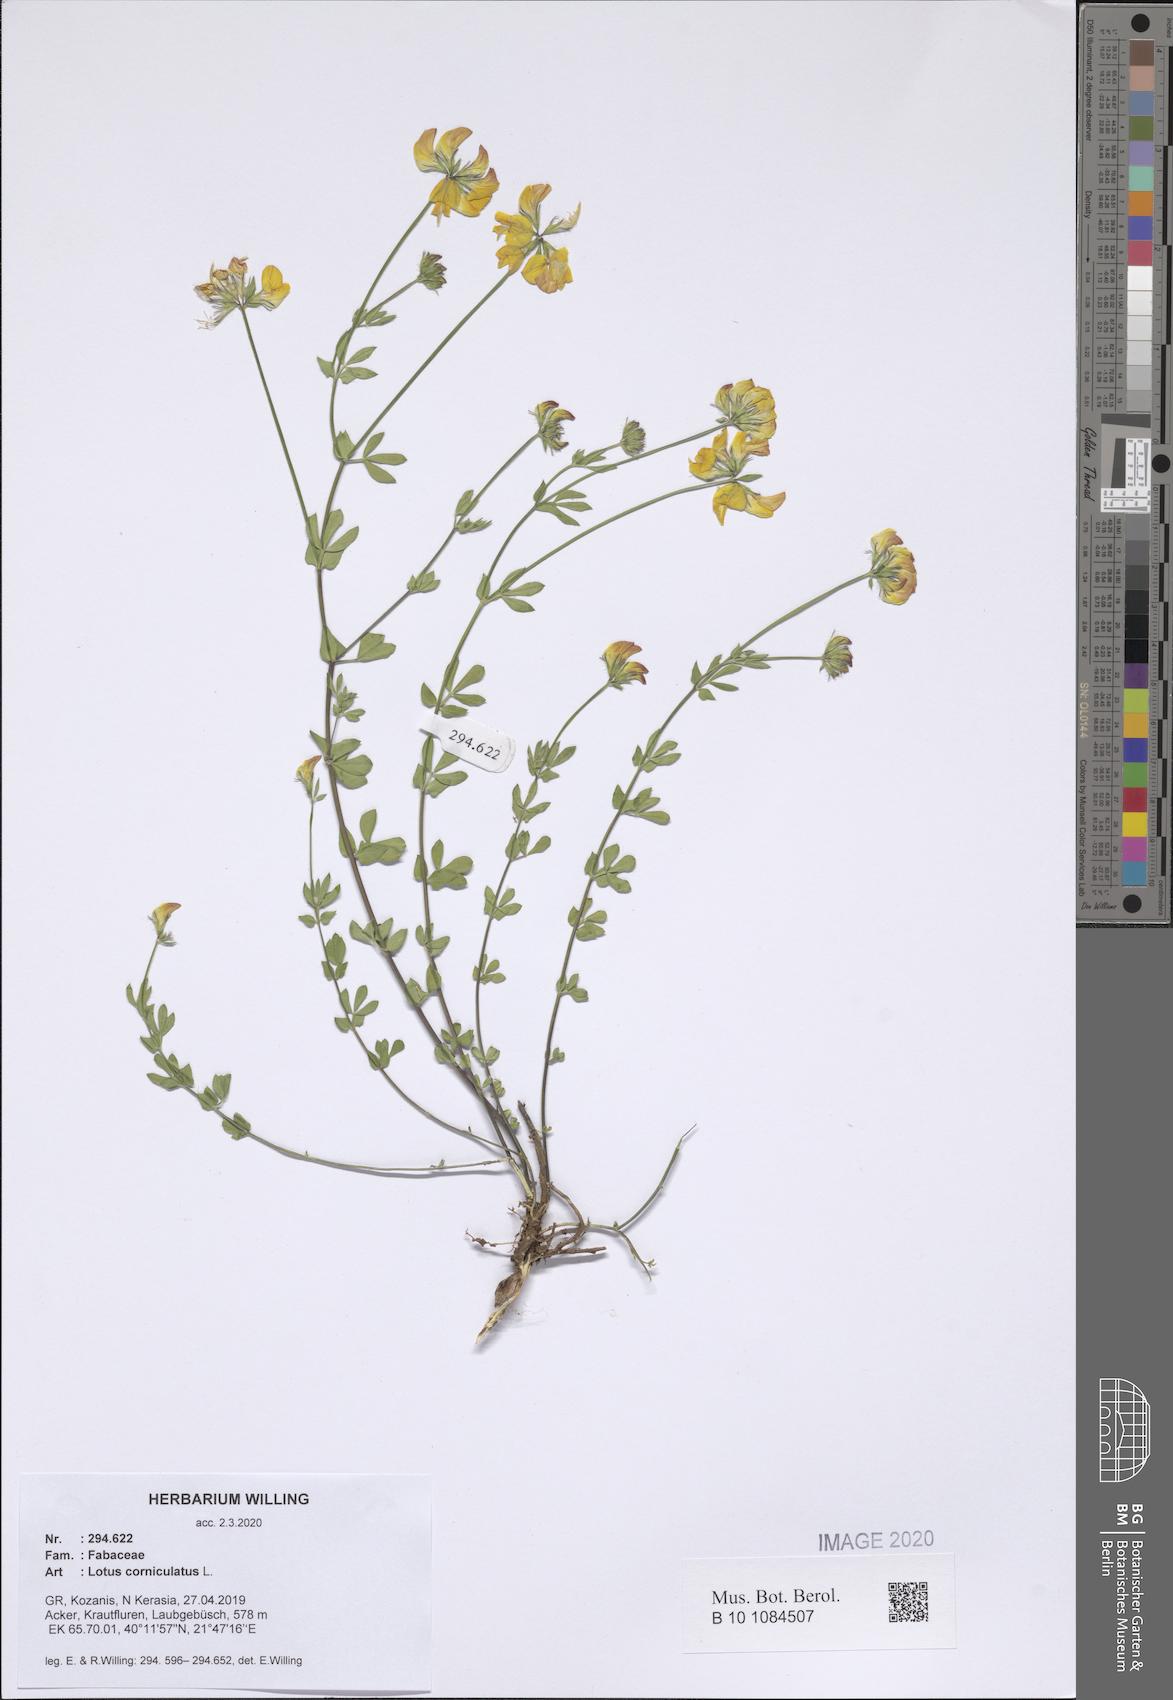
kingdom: Plantae
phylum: Tracheophyta
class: Magnoliopsida
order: Fabales
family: Fabaceae
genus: Lotus
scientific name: Lotus corniculatus
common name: Common bird's-foot-trefoil
